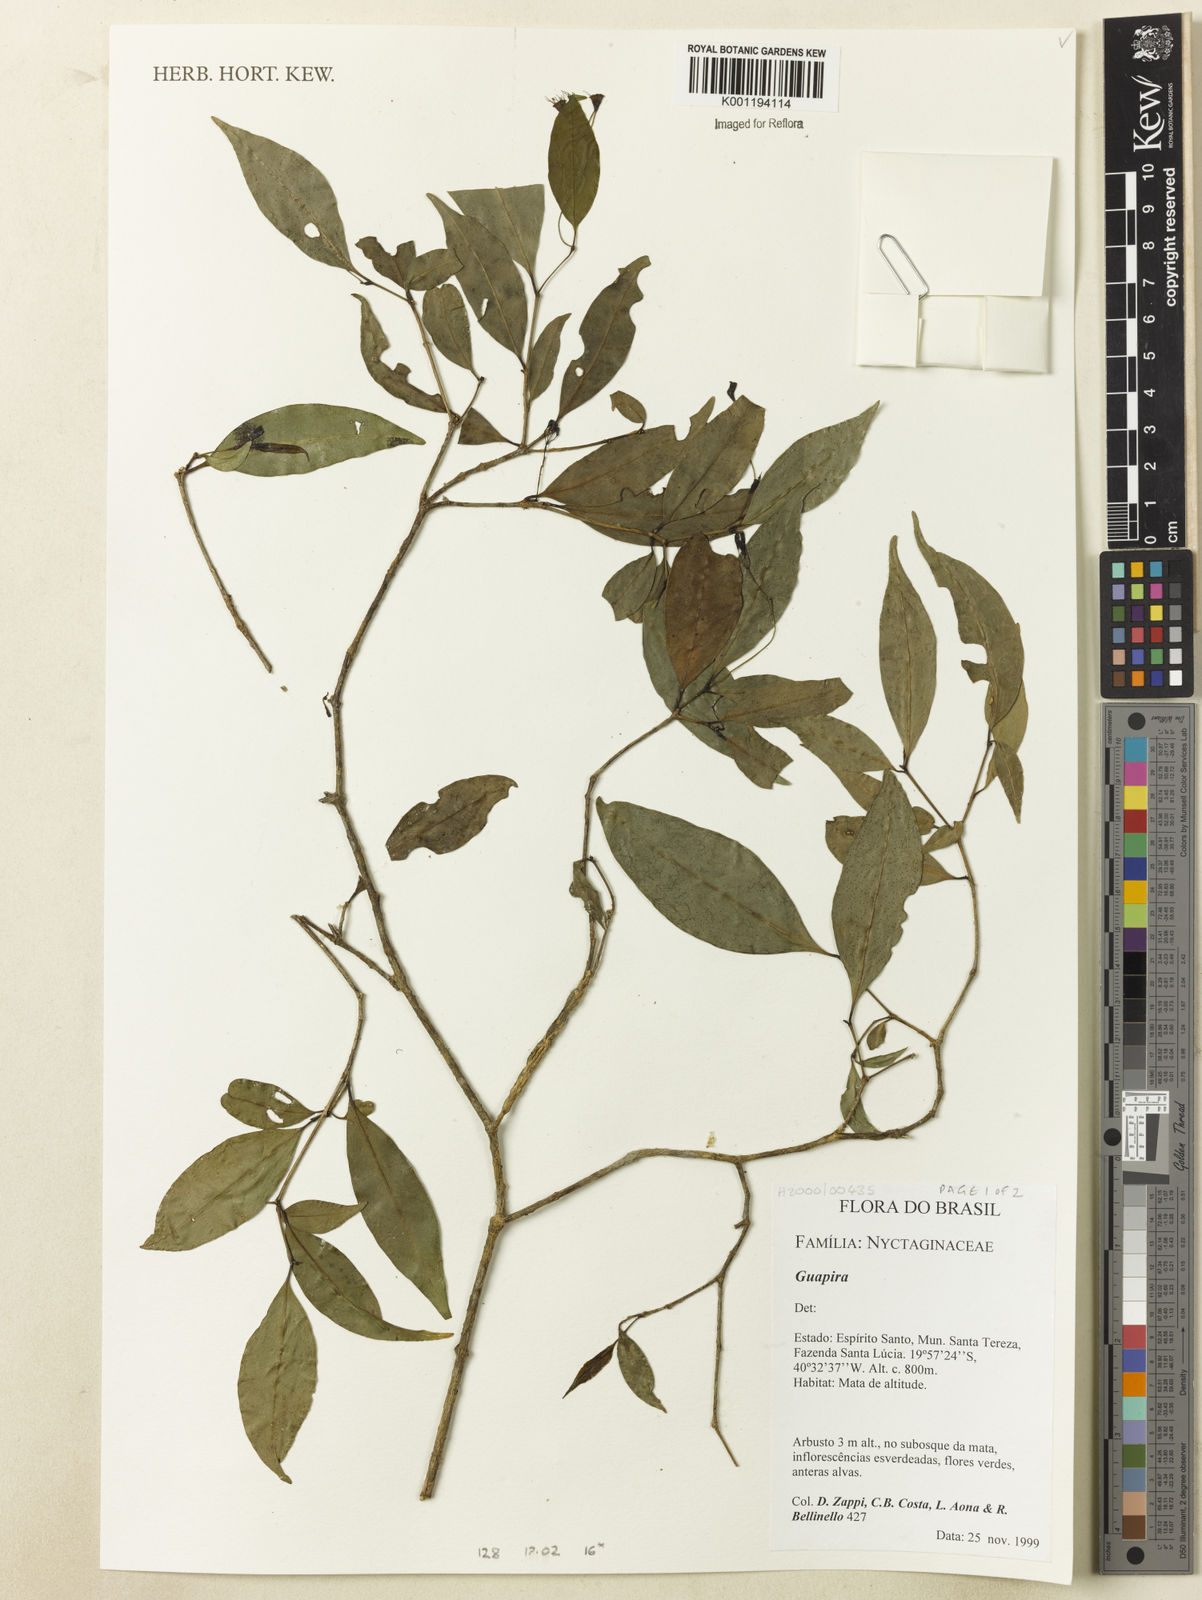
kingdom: Plantae
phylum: Tracheophyta
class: Magnoliopsida
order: Caryophyllales
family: Nyctaginaceae
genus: Guapira
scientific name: Guapira
